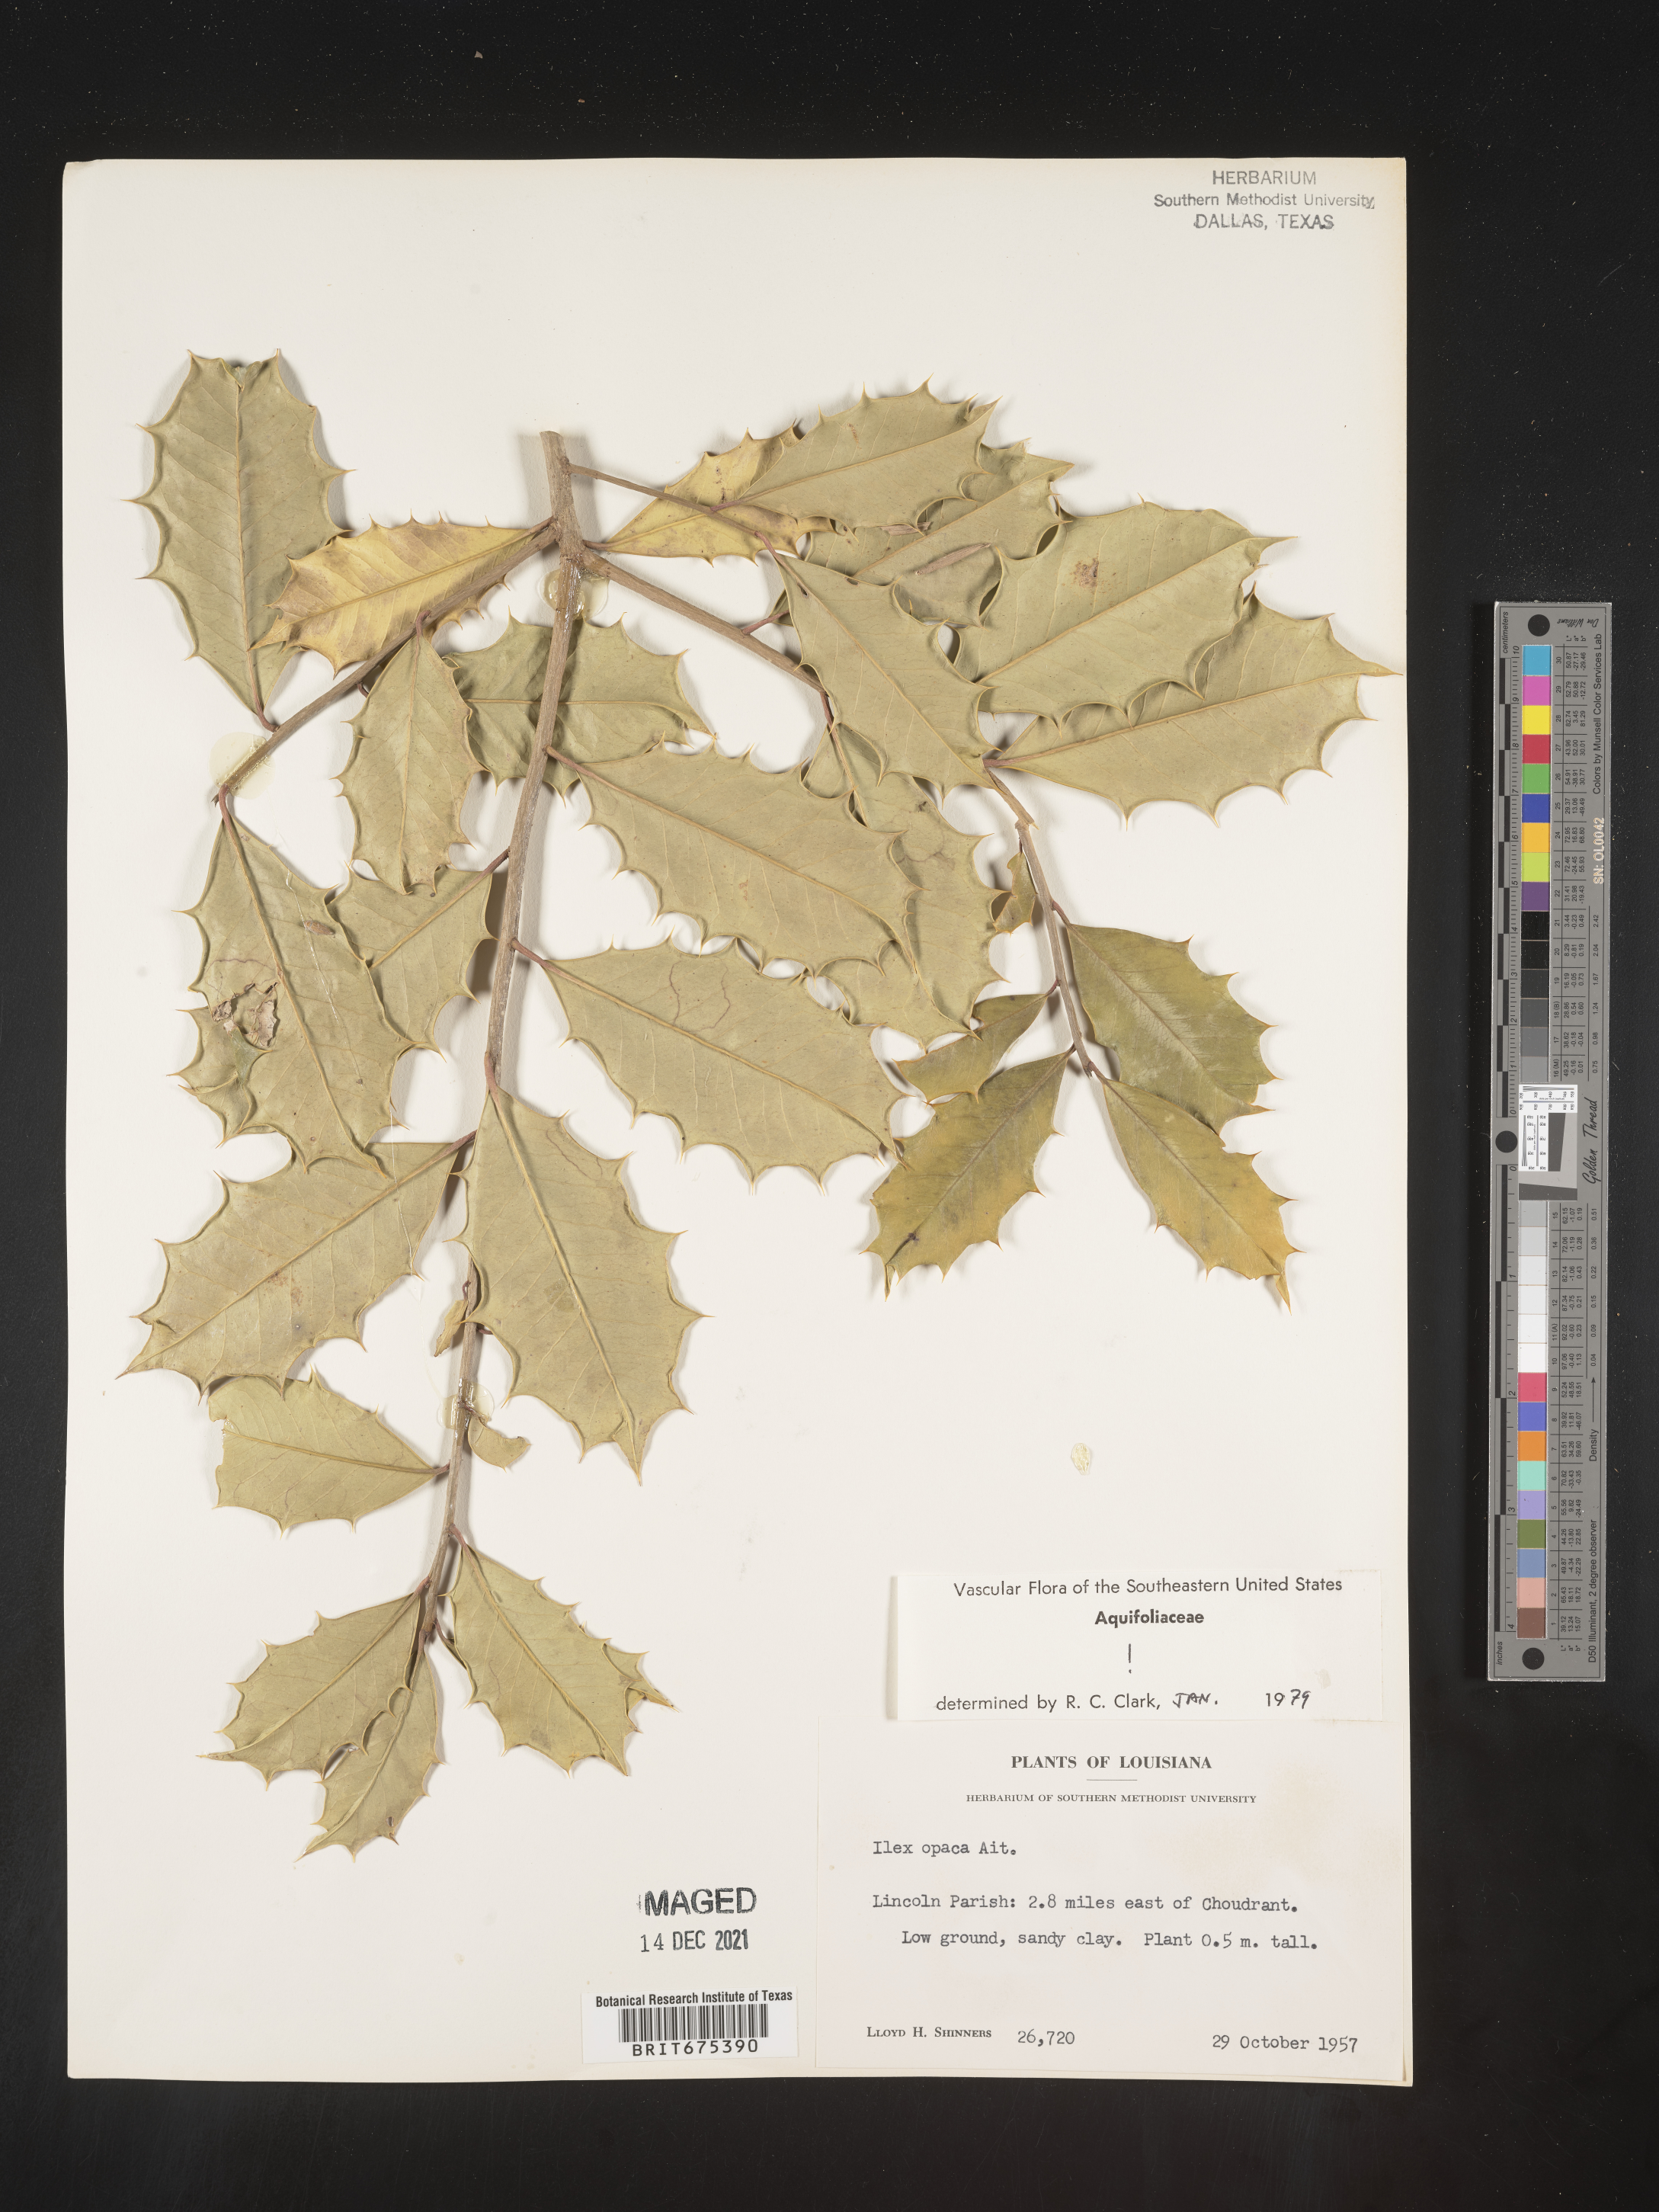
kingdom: Plantae
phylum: Tracheophyta
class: Magnoliopsida
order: Aquifoliales
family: Aquifoliaceae
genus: Ilex
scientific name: Ilex opaca
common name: American holly
